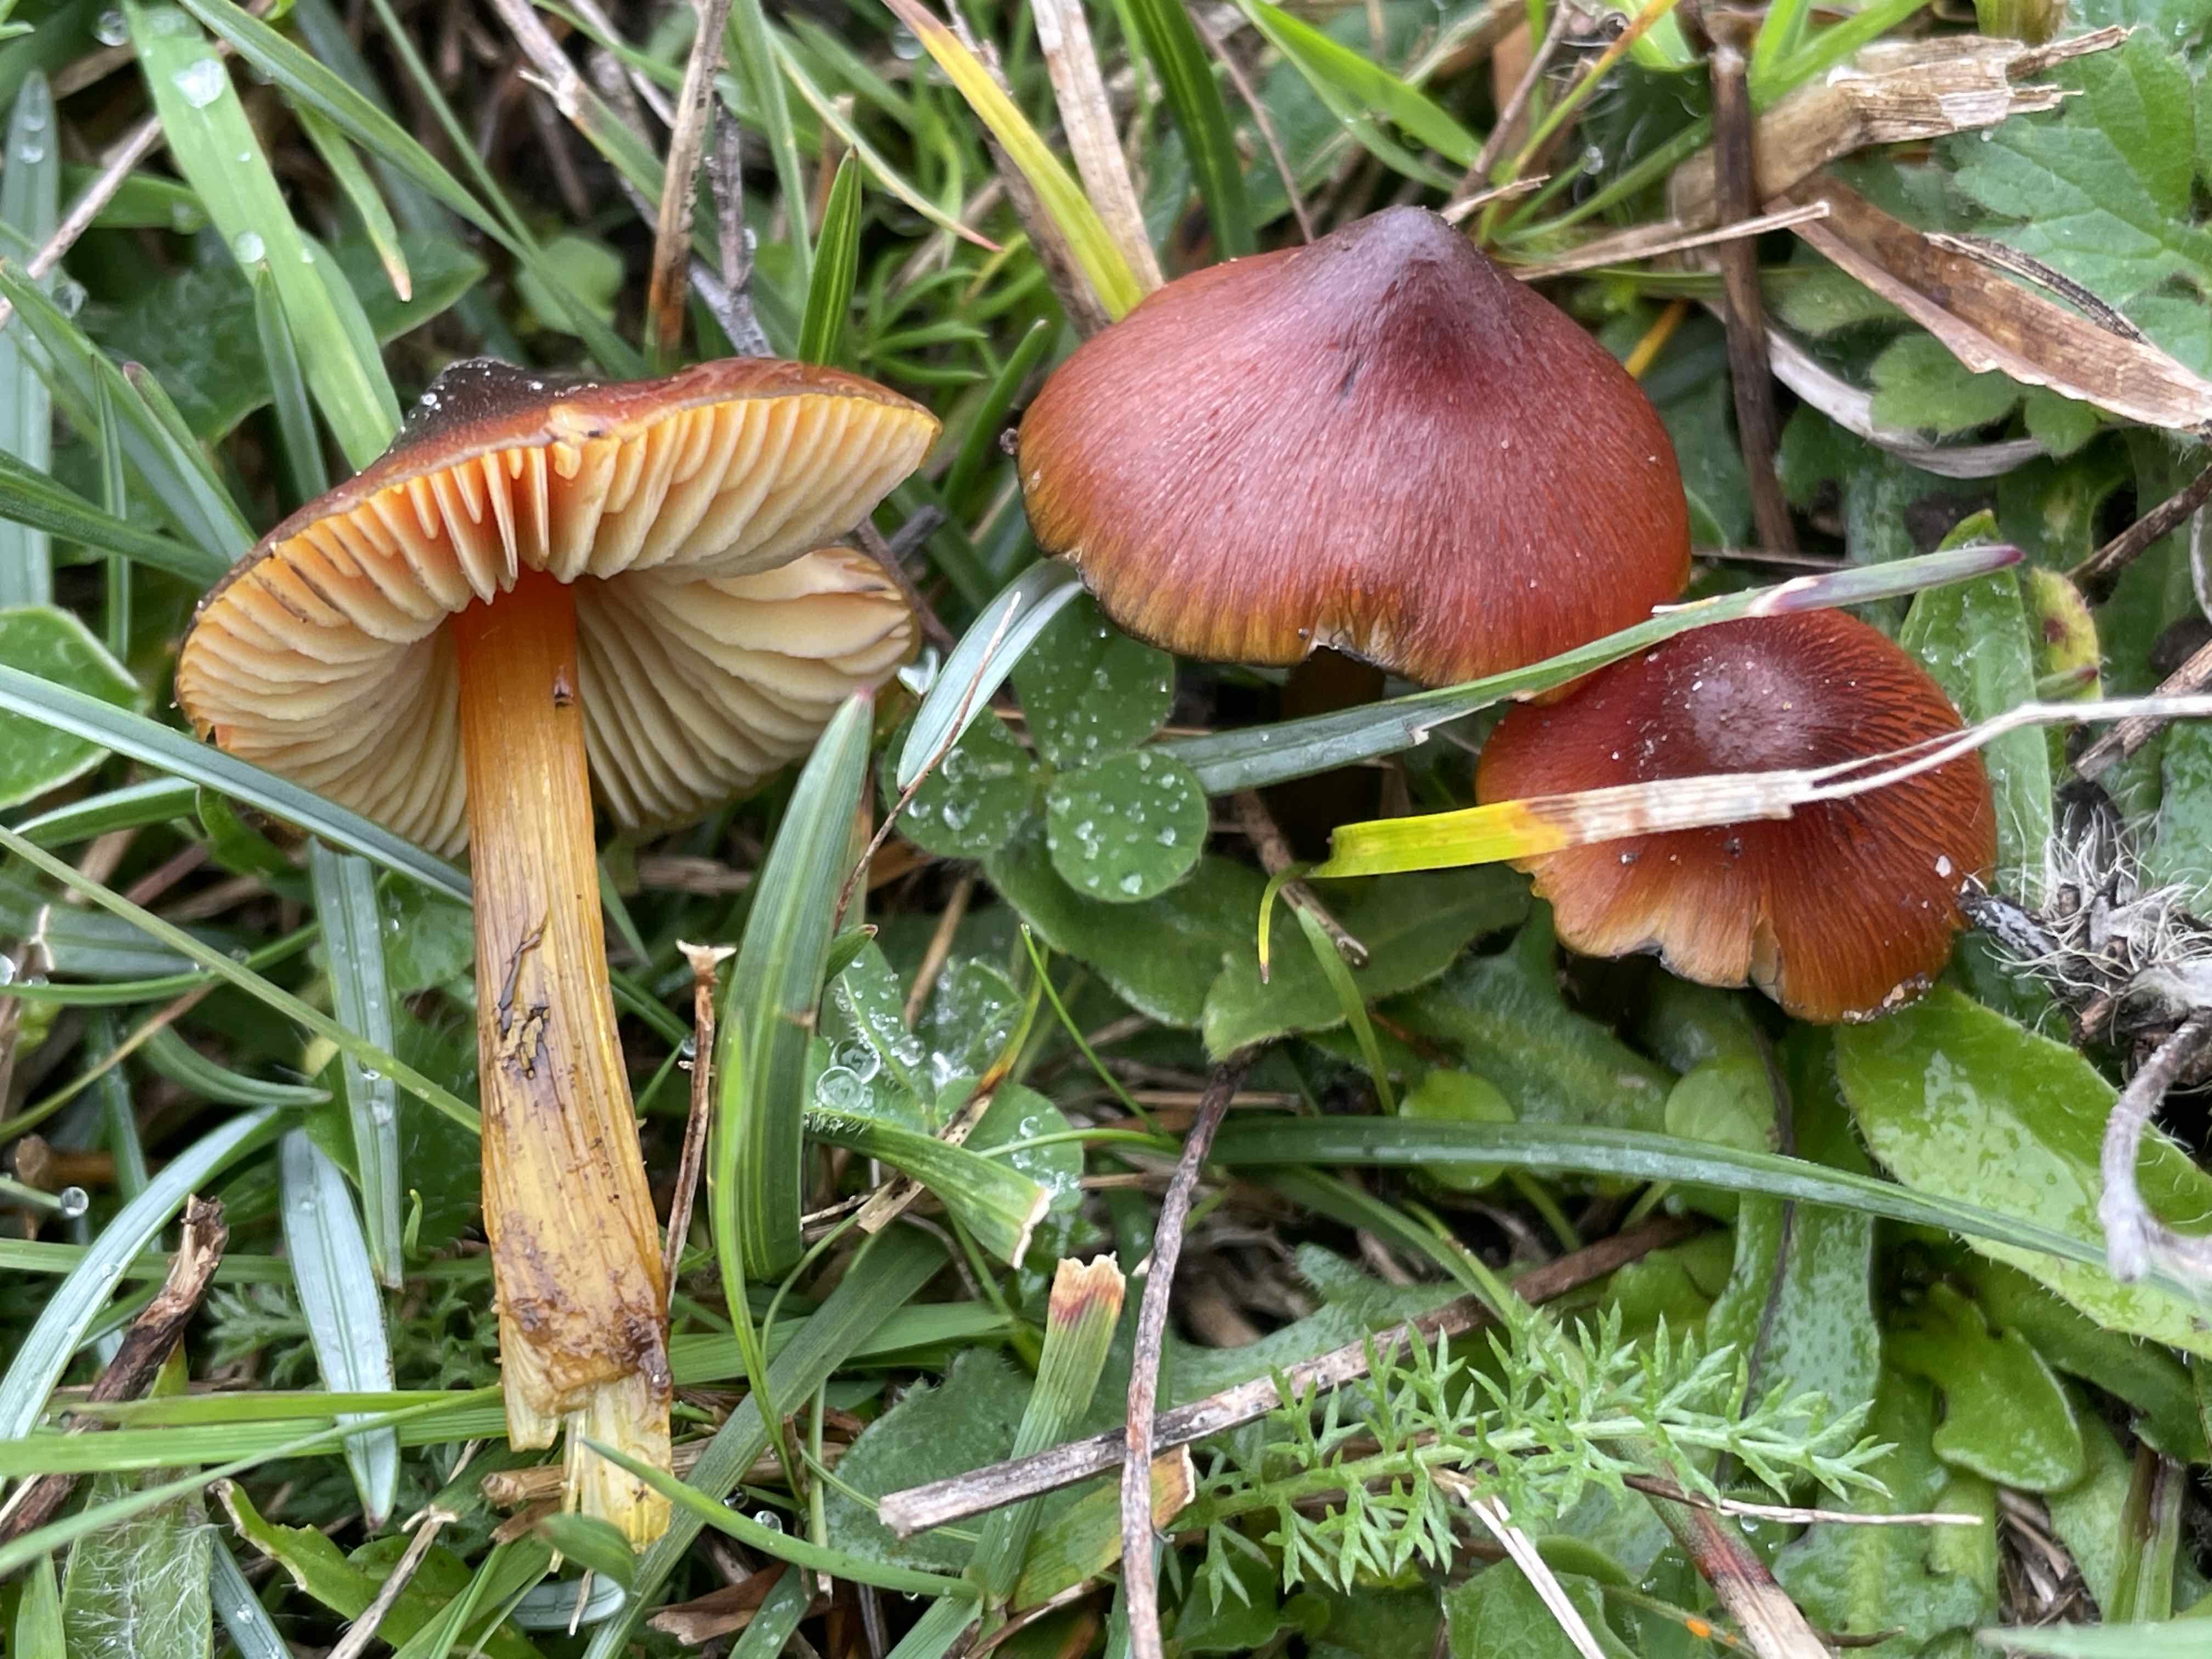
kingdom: Fungi
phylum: Basidiomycota
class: Agaricomycetes
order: Agaricales
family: Hygrophoraceae
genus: Hygrocybe
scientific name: Hygrocybe conica
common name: kegle-vokshat
